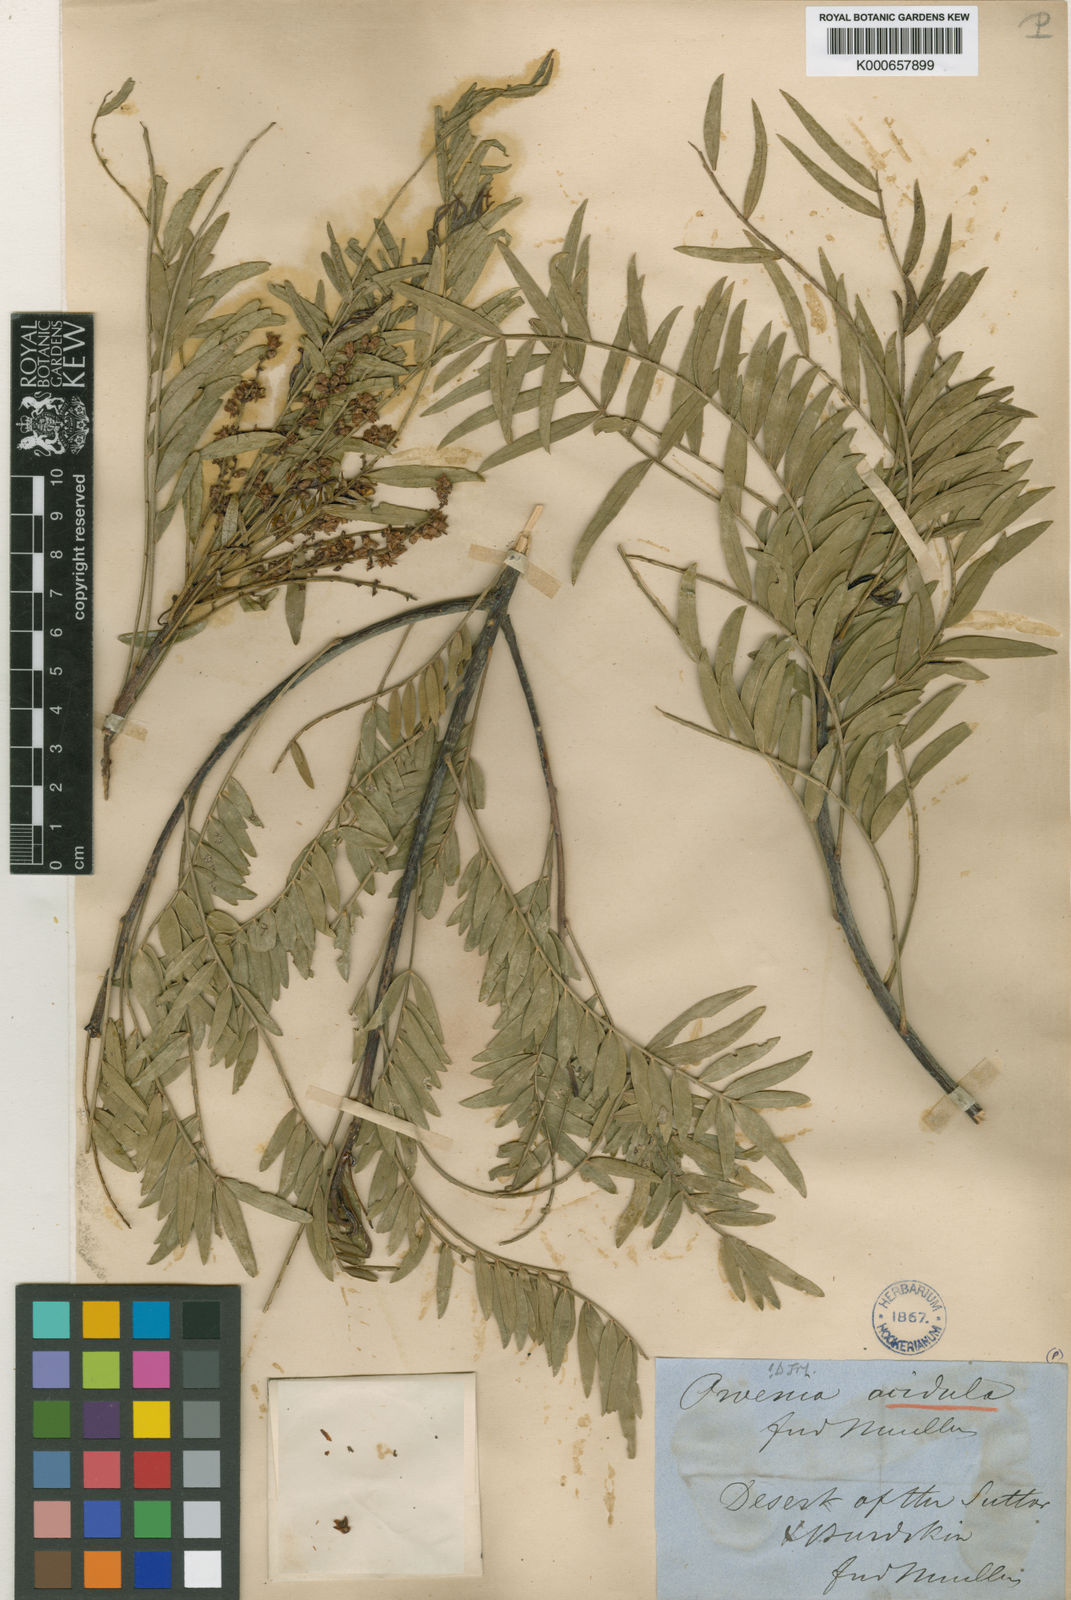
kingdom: Plantae
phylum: Tracheophyta
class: Magnoliopsida
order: Sapindales
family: Meliaceae
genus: Owenia
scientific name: Owenia acidula
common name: Tulipwood
